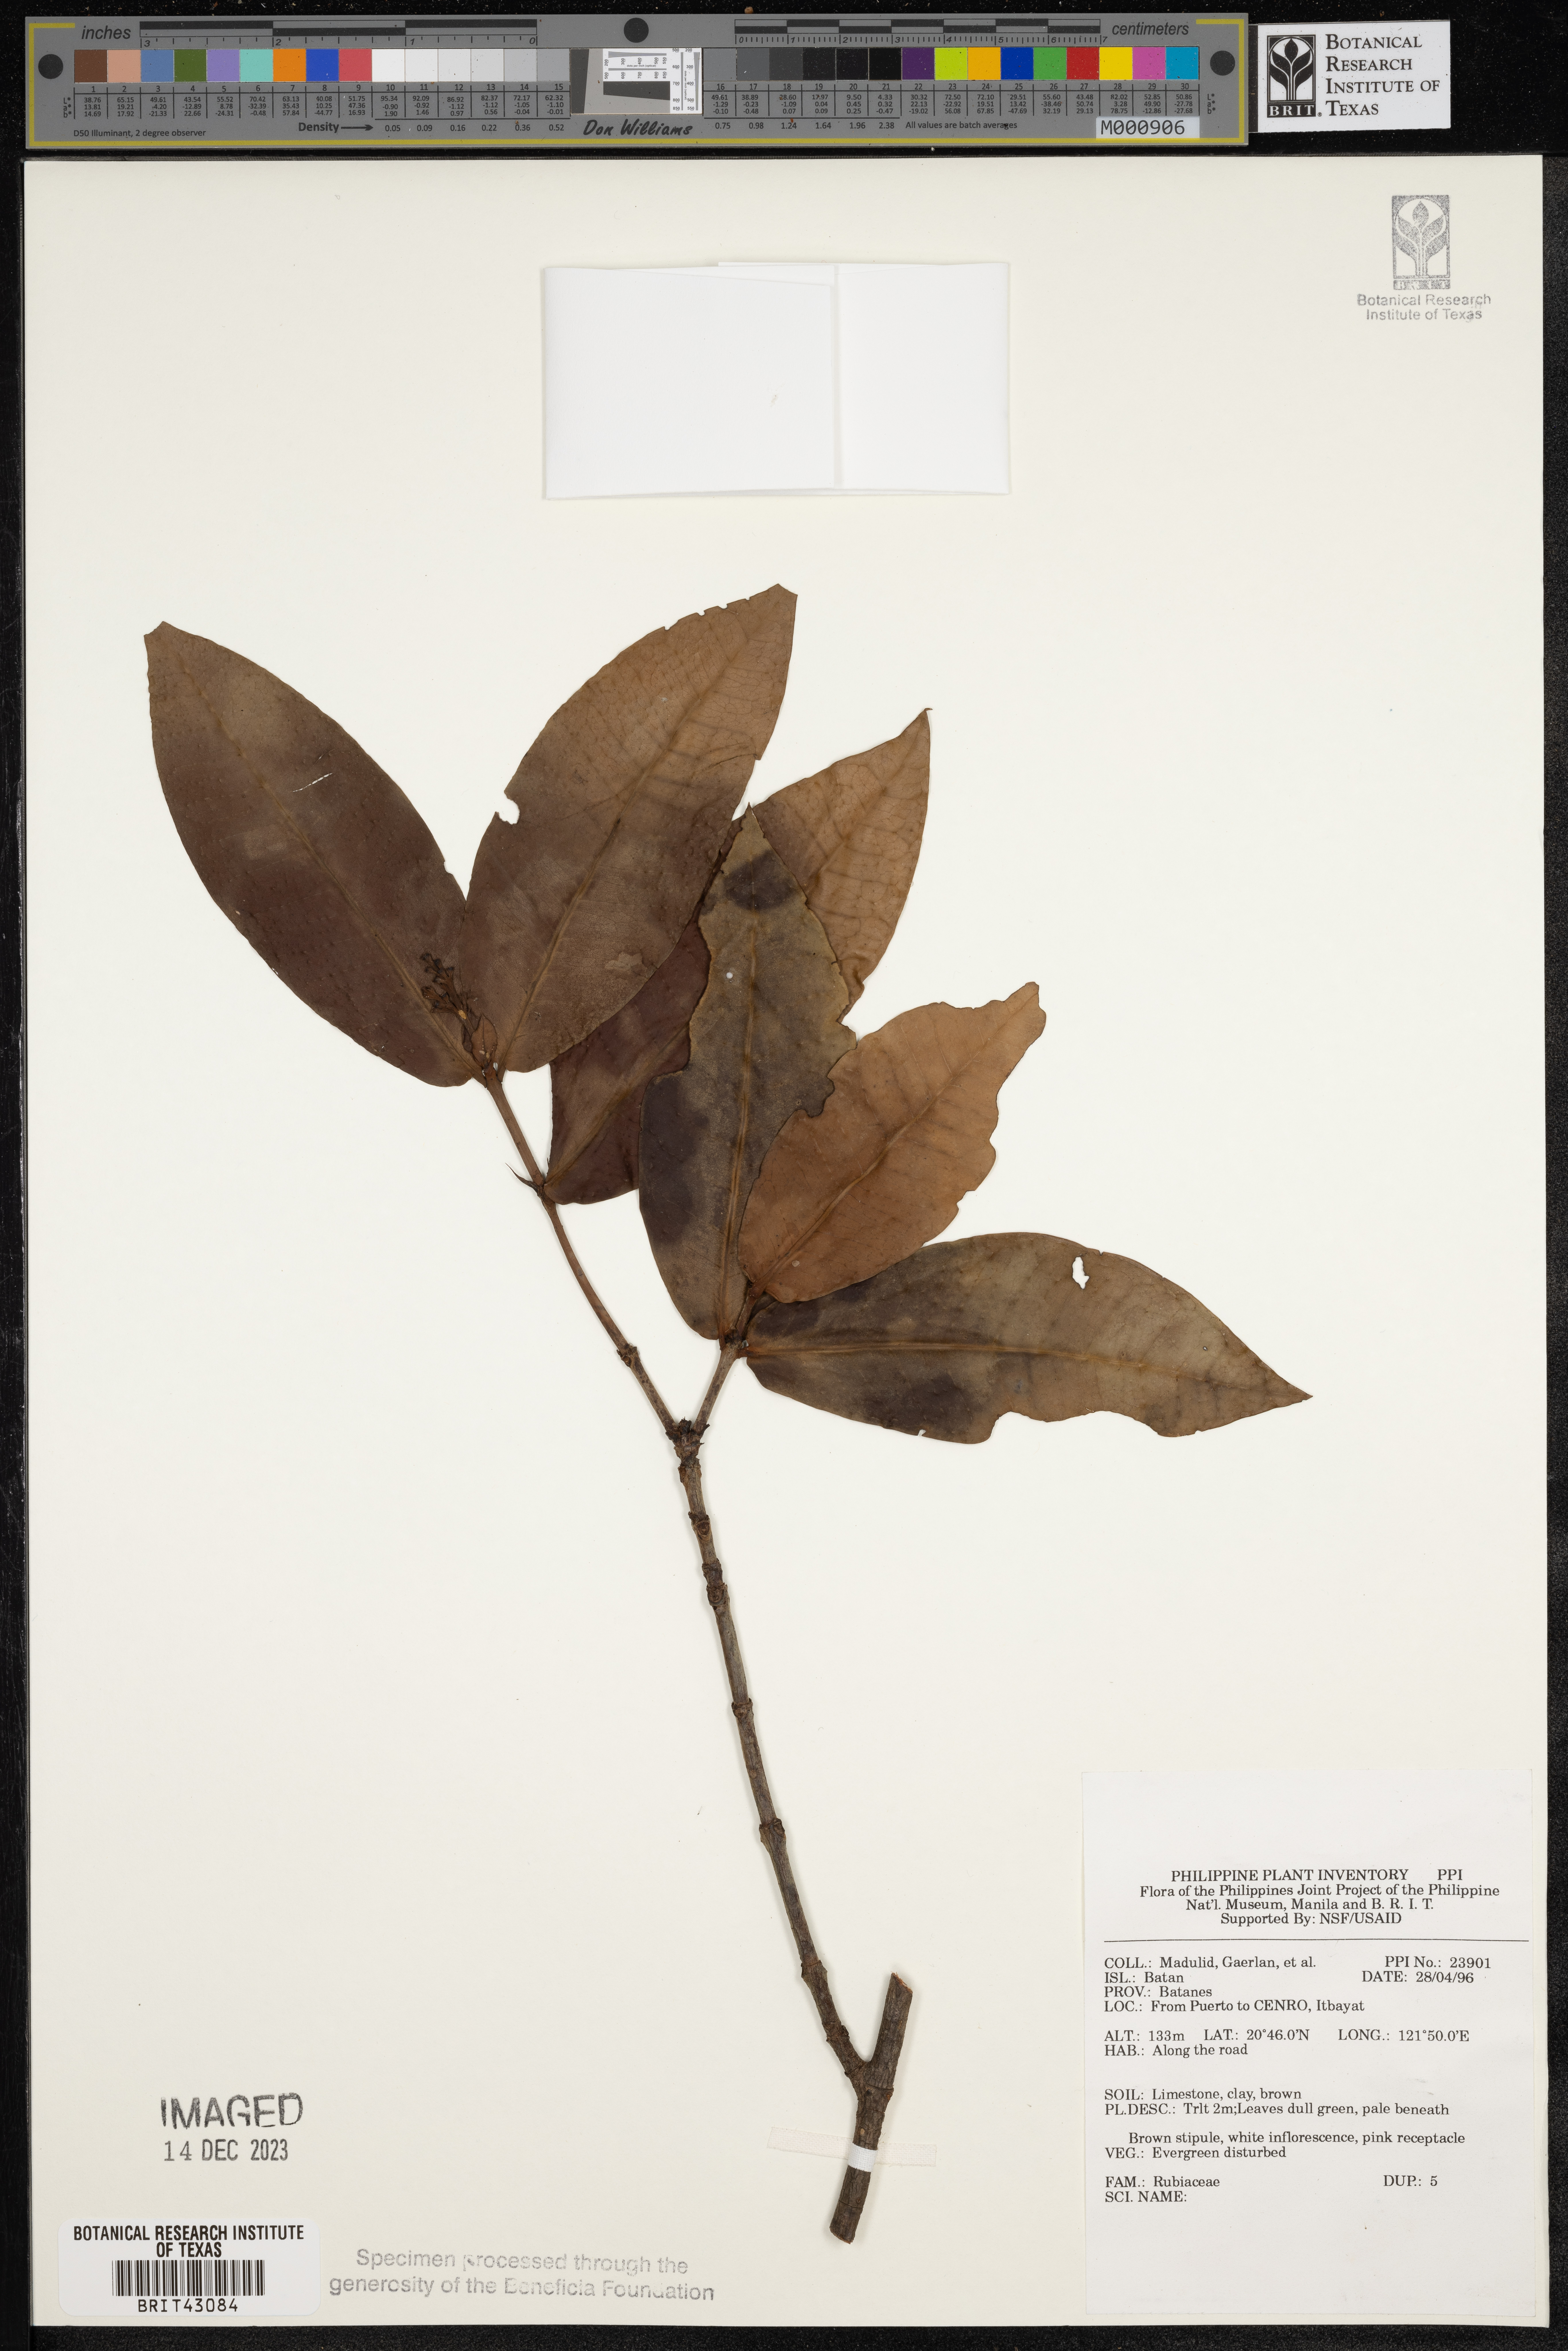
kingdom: Plantae
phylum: Tracheophyta
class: Magnoliopsida
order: Gentianales
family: Rubiaceae
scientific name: Rubiaceae
